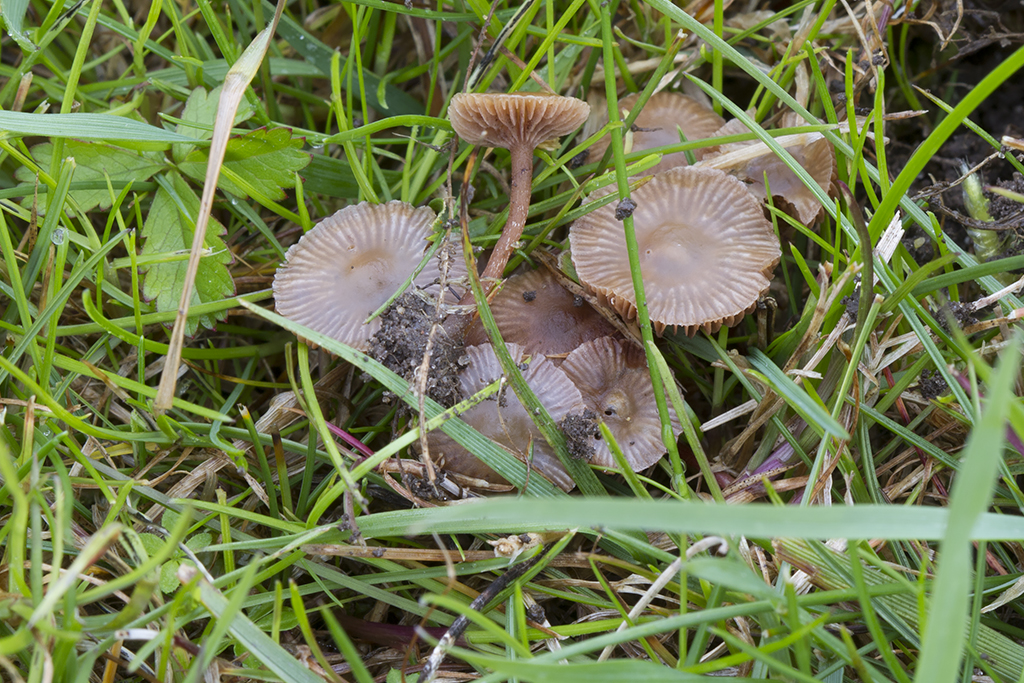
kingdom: Fungi
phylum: Basidiomycota
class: Agaricomycetes
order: Agaricales
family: Strophariaceae
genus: Deconica
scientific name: Deconica inquilina
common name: græs-stråhat
